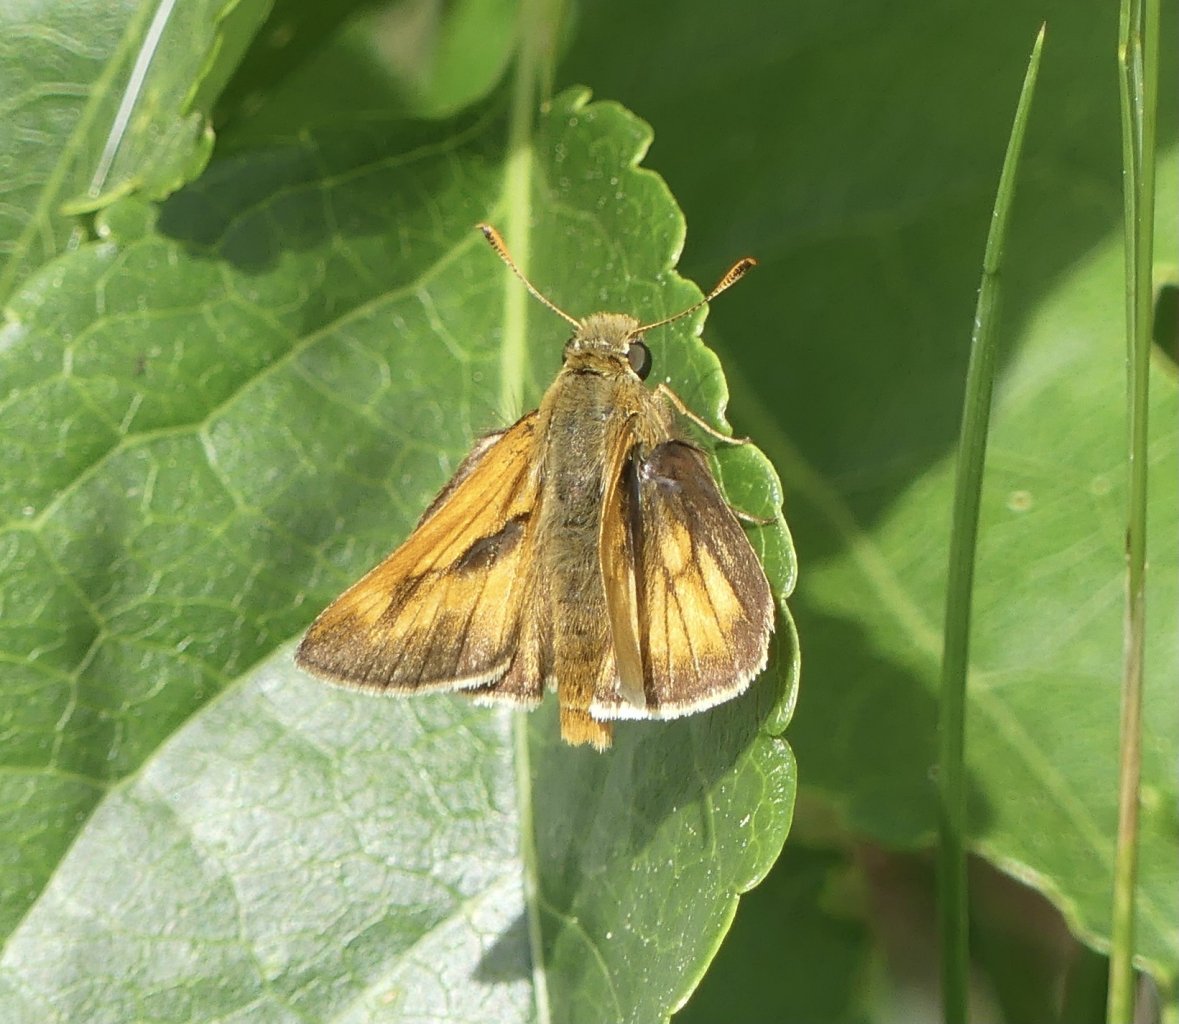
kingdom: Animalia
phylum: Arthropoda
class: Insecta
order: Lepidoptera
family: Hesperiidae
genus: Polites
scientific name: Polites
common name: Long Dash Skipper
